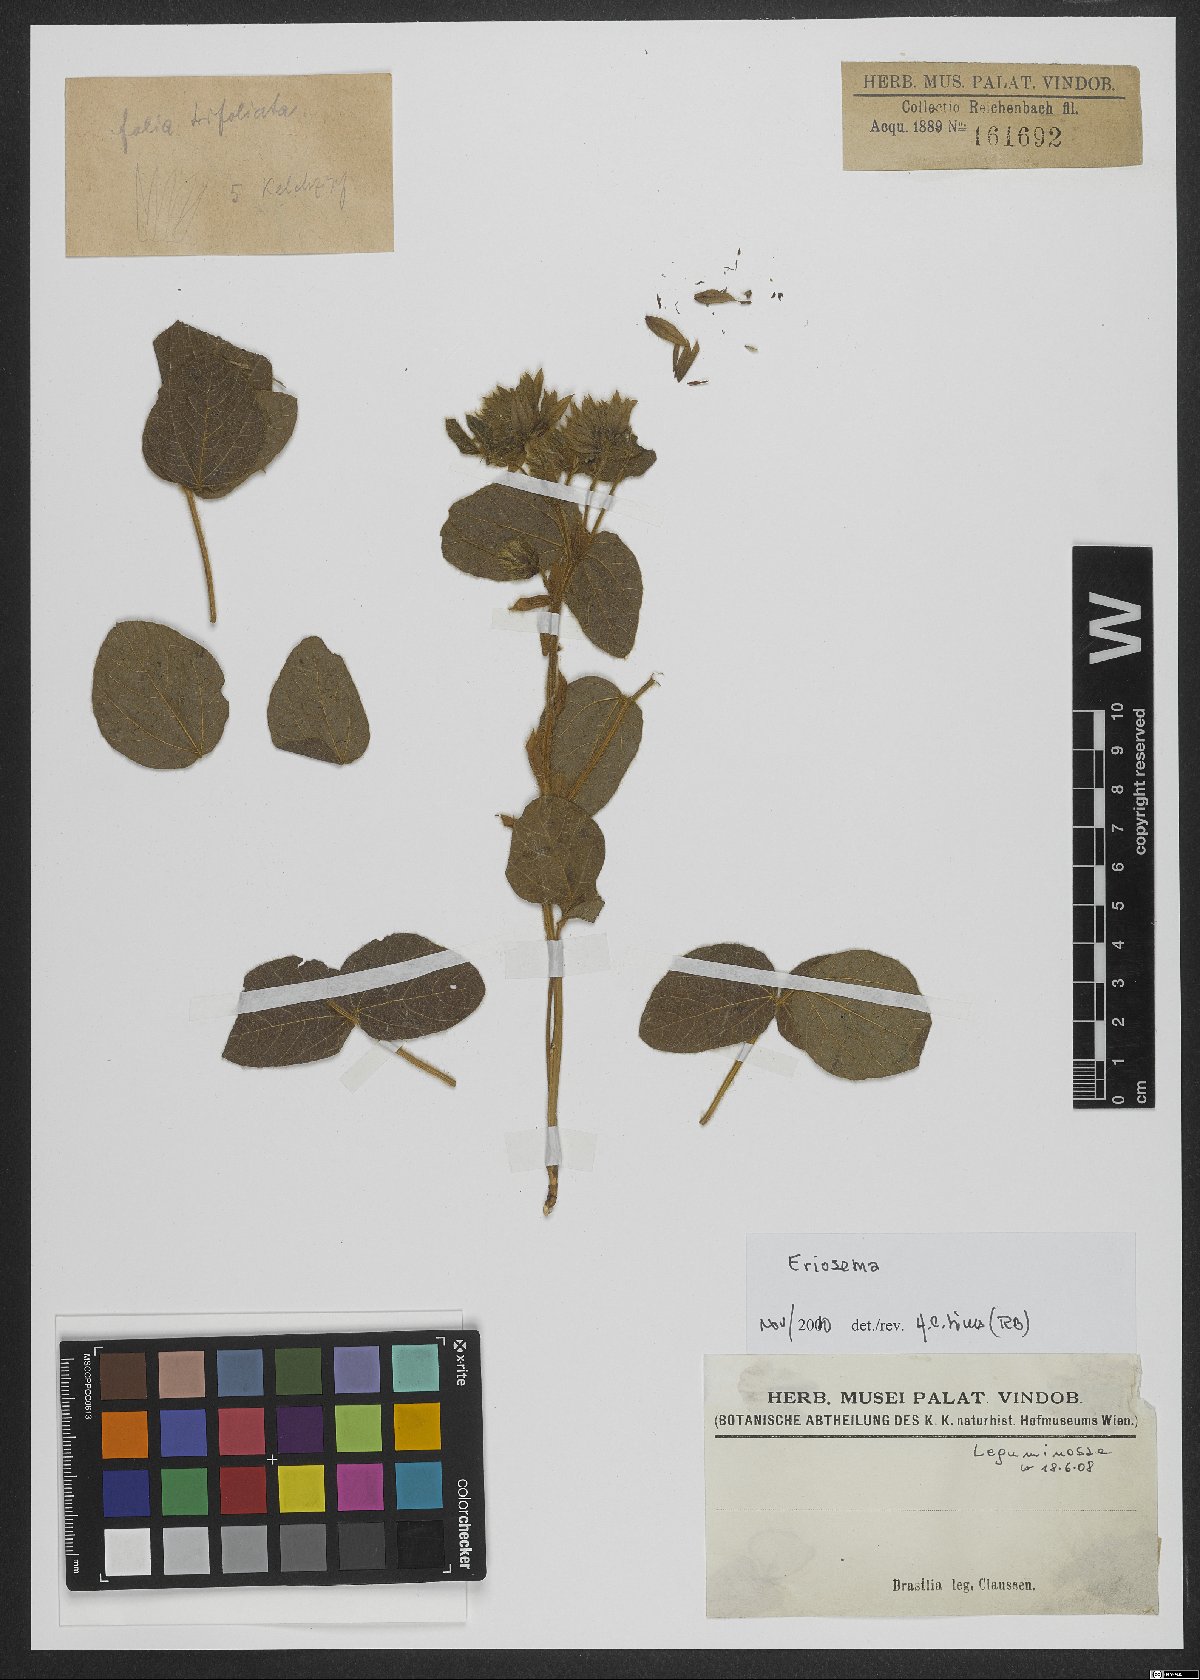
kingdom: Plantae
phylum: Tracheophyta
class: Magnoliopsida
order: Fabales
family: Fabaceae
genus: Eriosema
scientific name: Eriosema crinitum
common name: Sand pea
